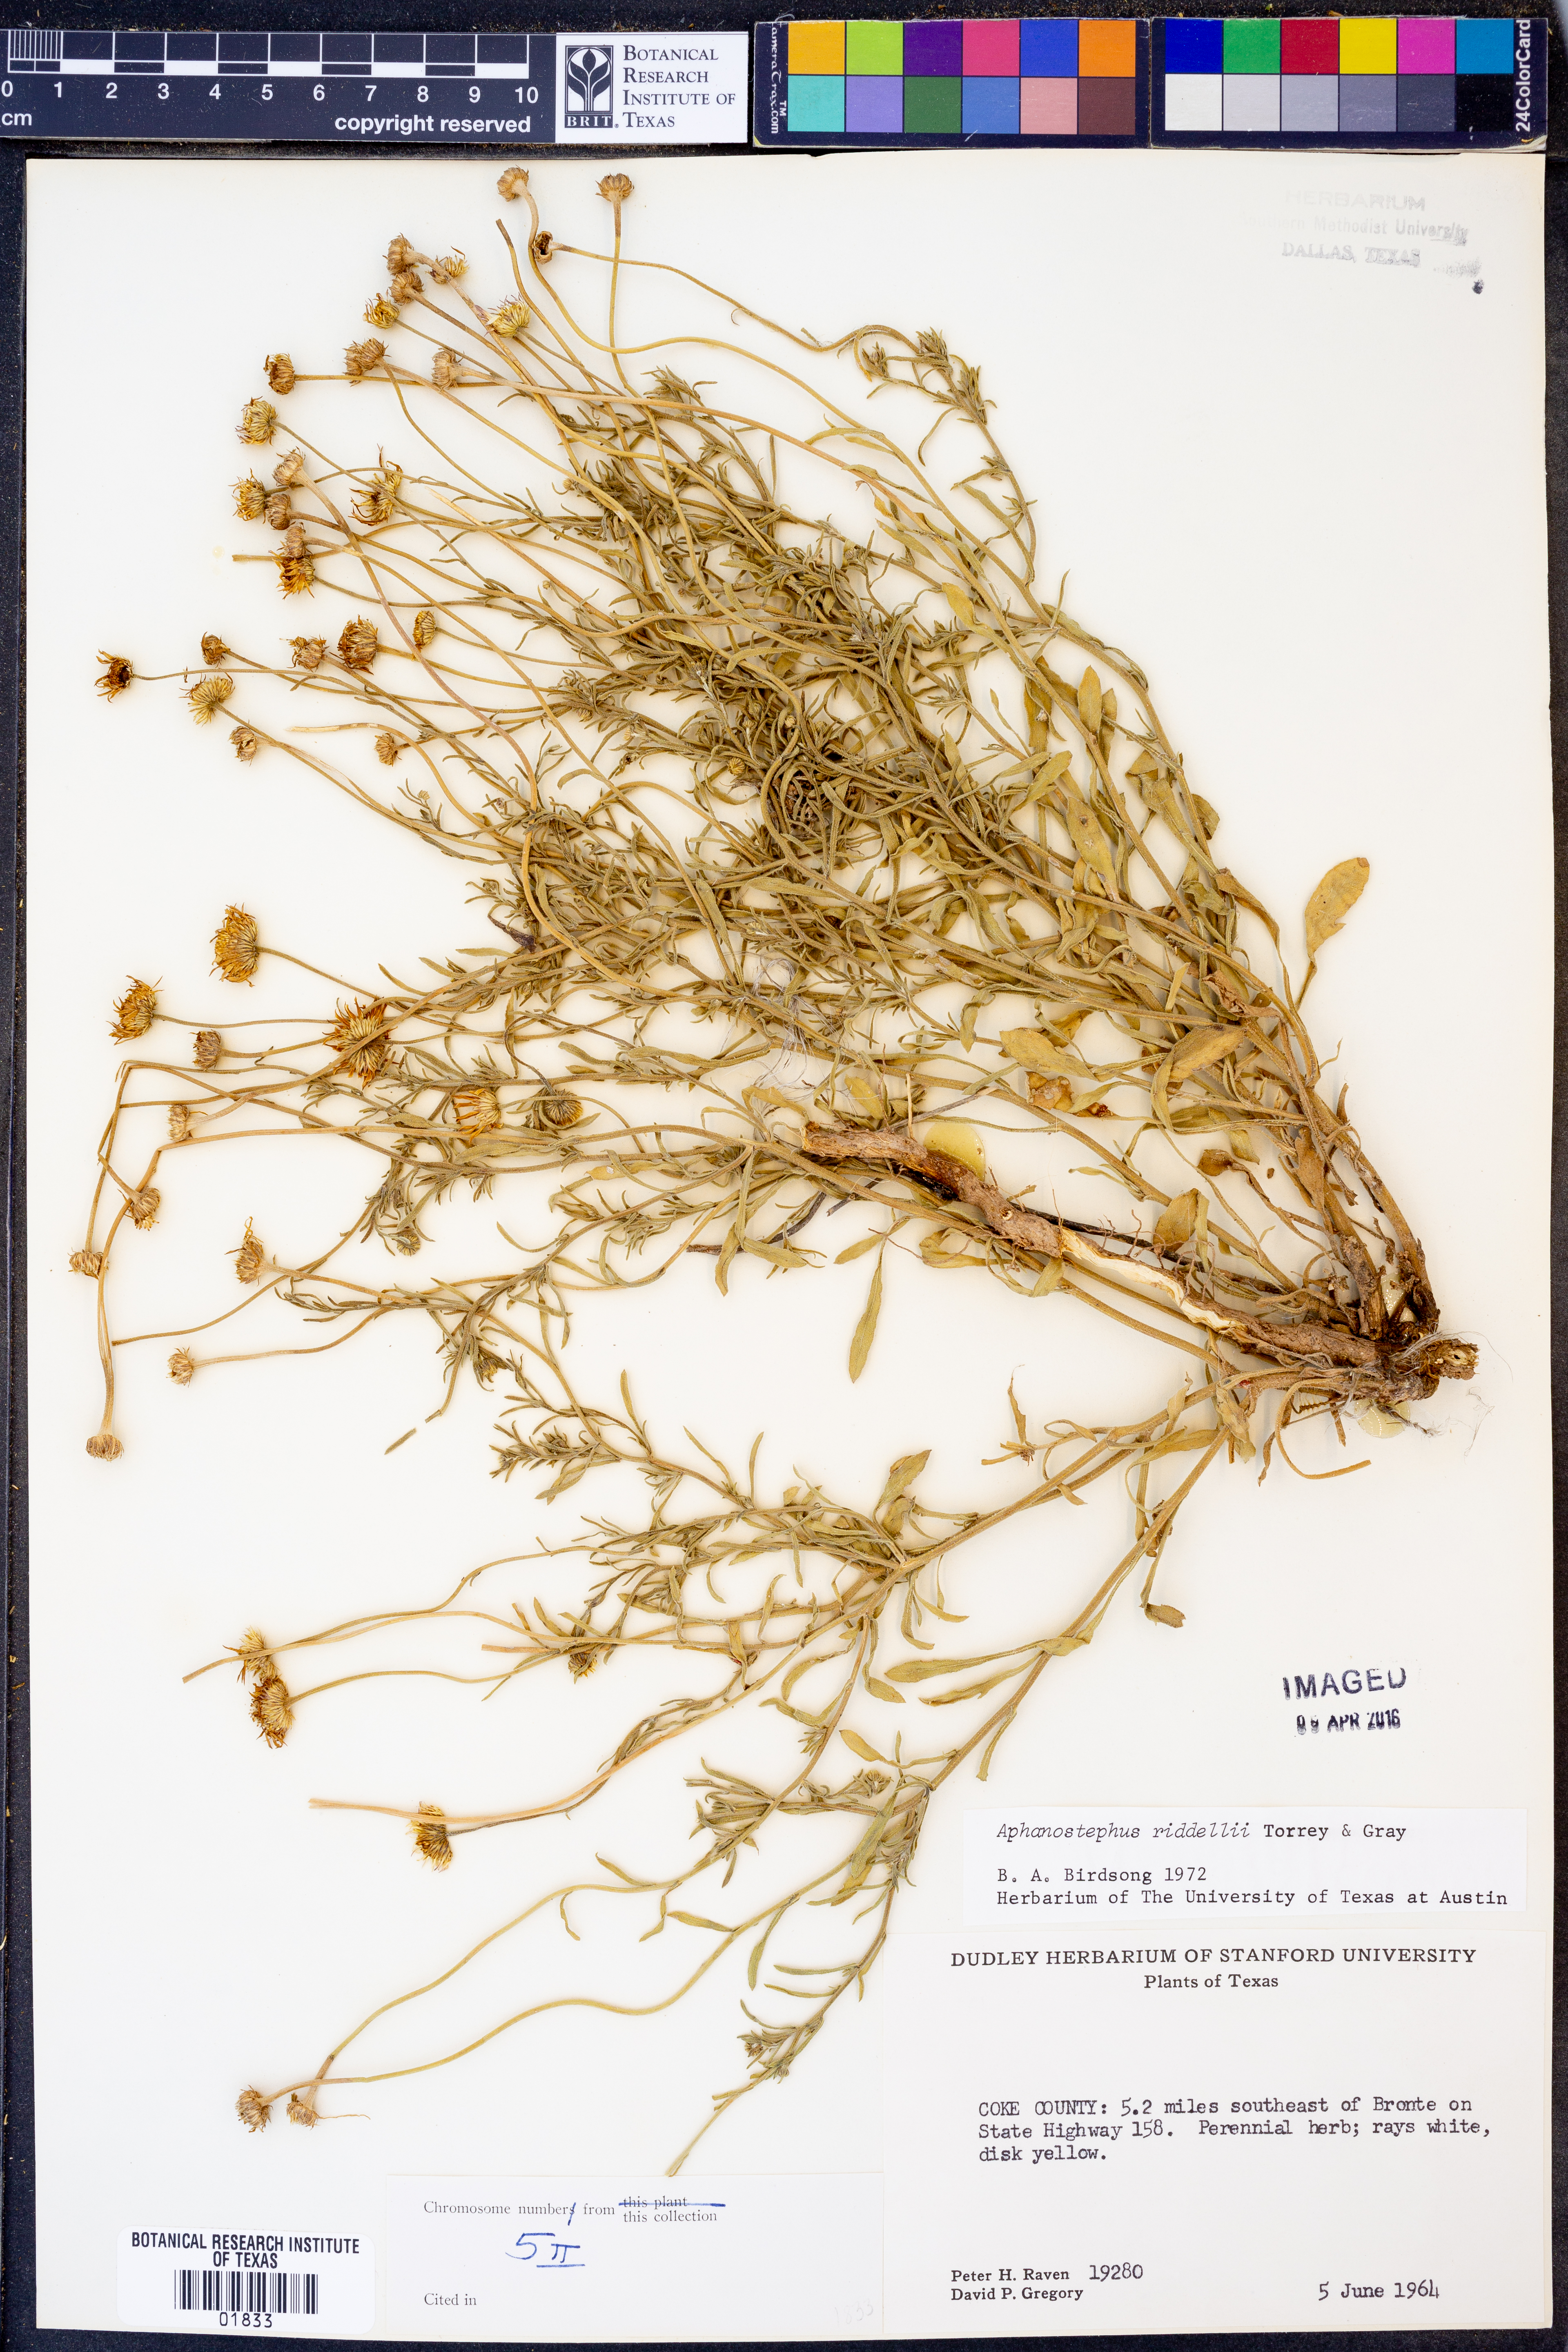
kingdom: Plantae
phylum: Tracheophyta
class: Magnoliopsida
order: Asterales
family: Asteraceae
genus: Aphanostephus
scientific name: Aphanostephus riddellii
